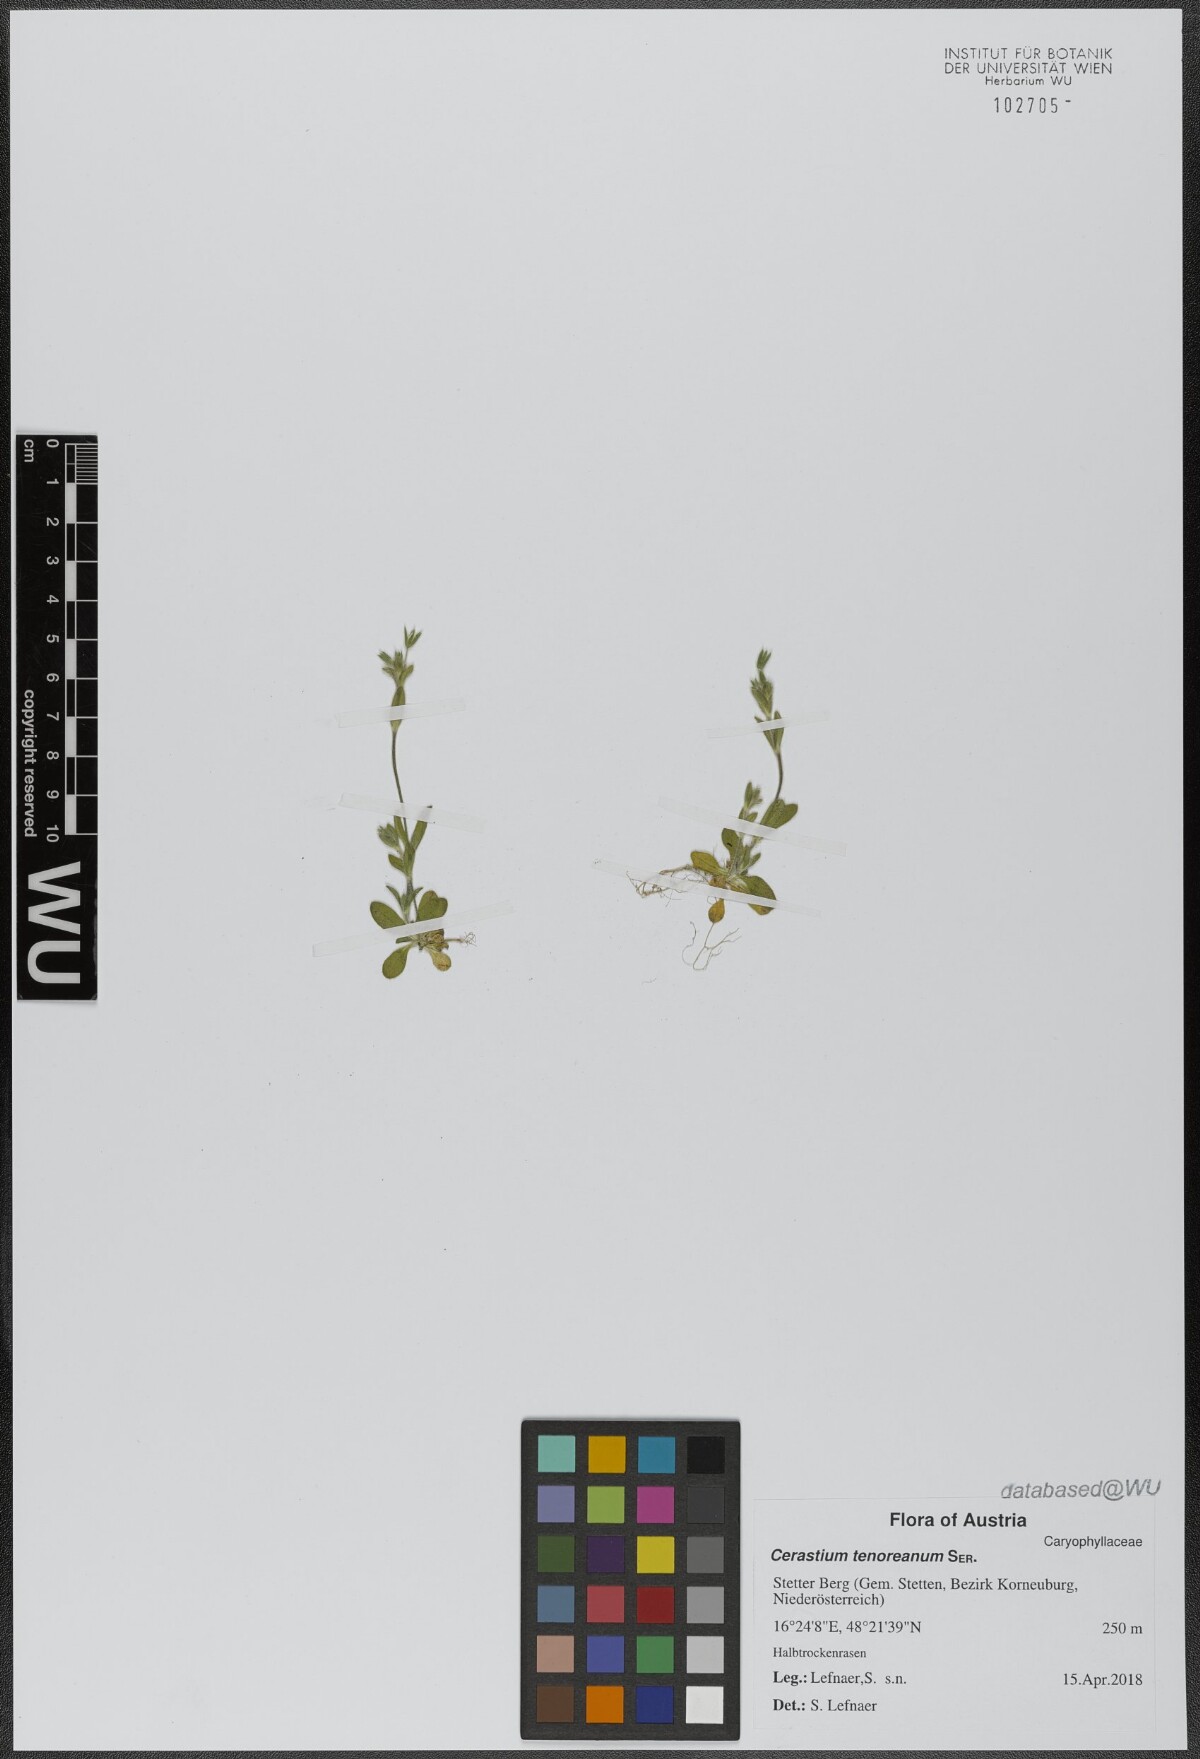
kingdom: Plantae
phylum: Tracheophyta
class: Magnoliopsida
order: Caryophyllales
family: Caryophyllaceae
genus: Cerastium
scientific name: Cerastium tenoreanum
